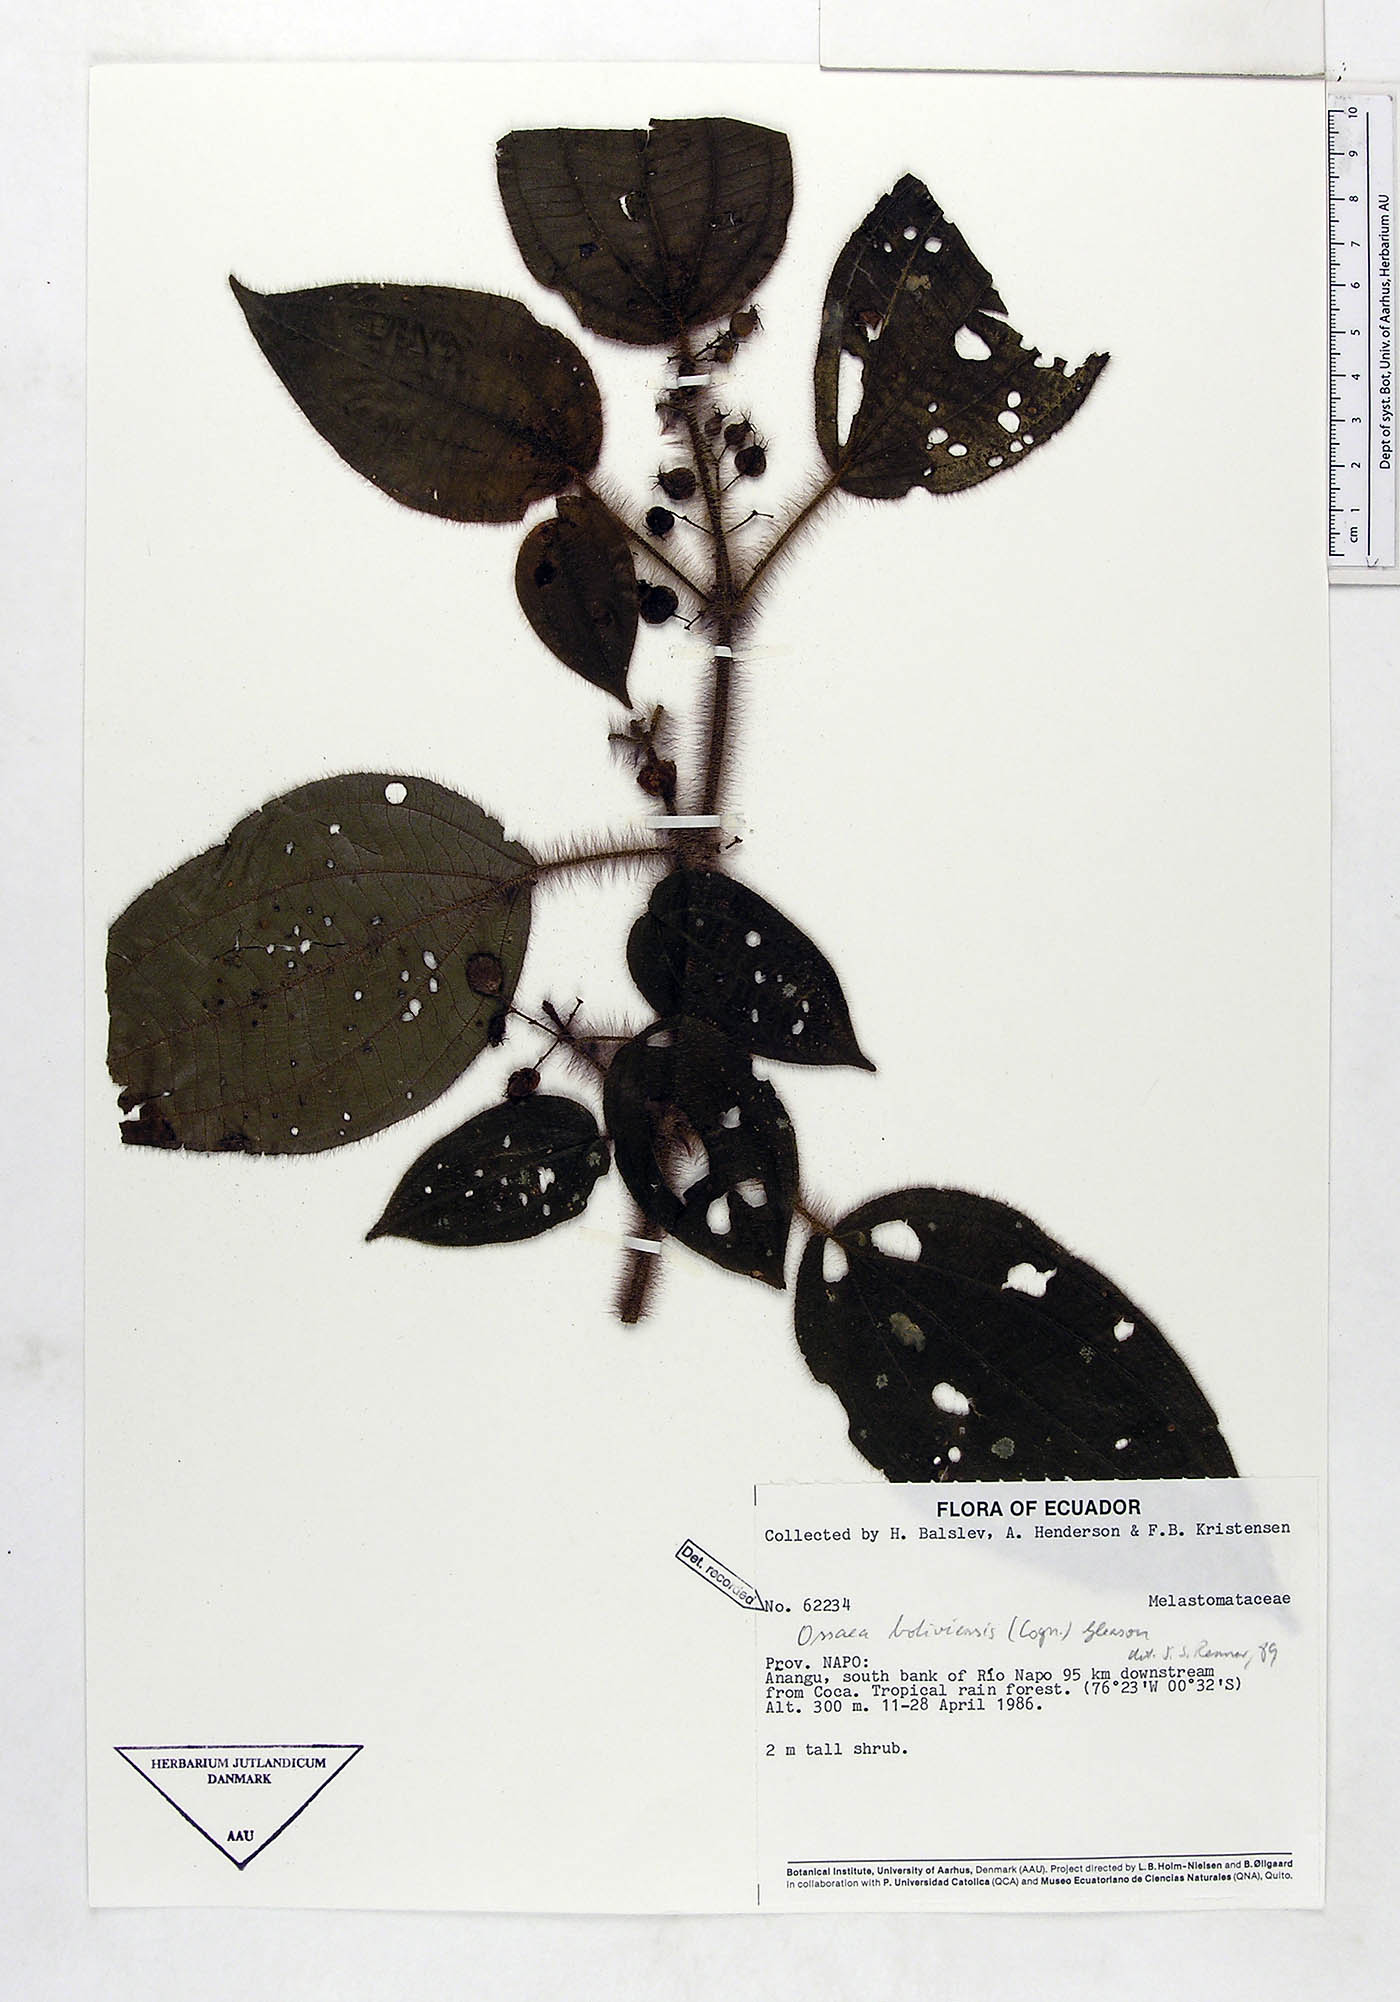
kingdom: Plantae
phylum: Tracheophyta
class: Magnoliopsida
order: Myrtales
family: Melastomataceae
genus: Miconia
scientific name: Miconia violascens
